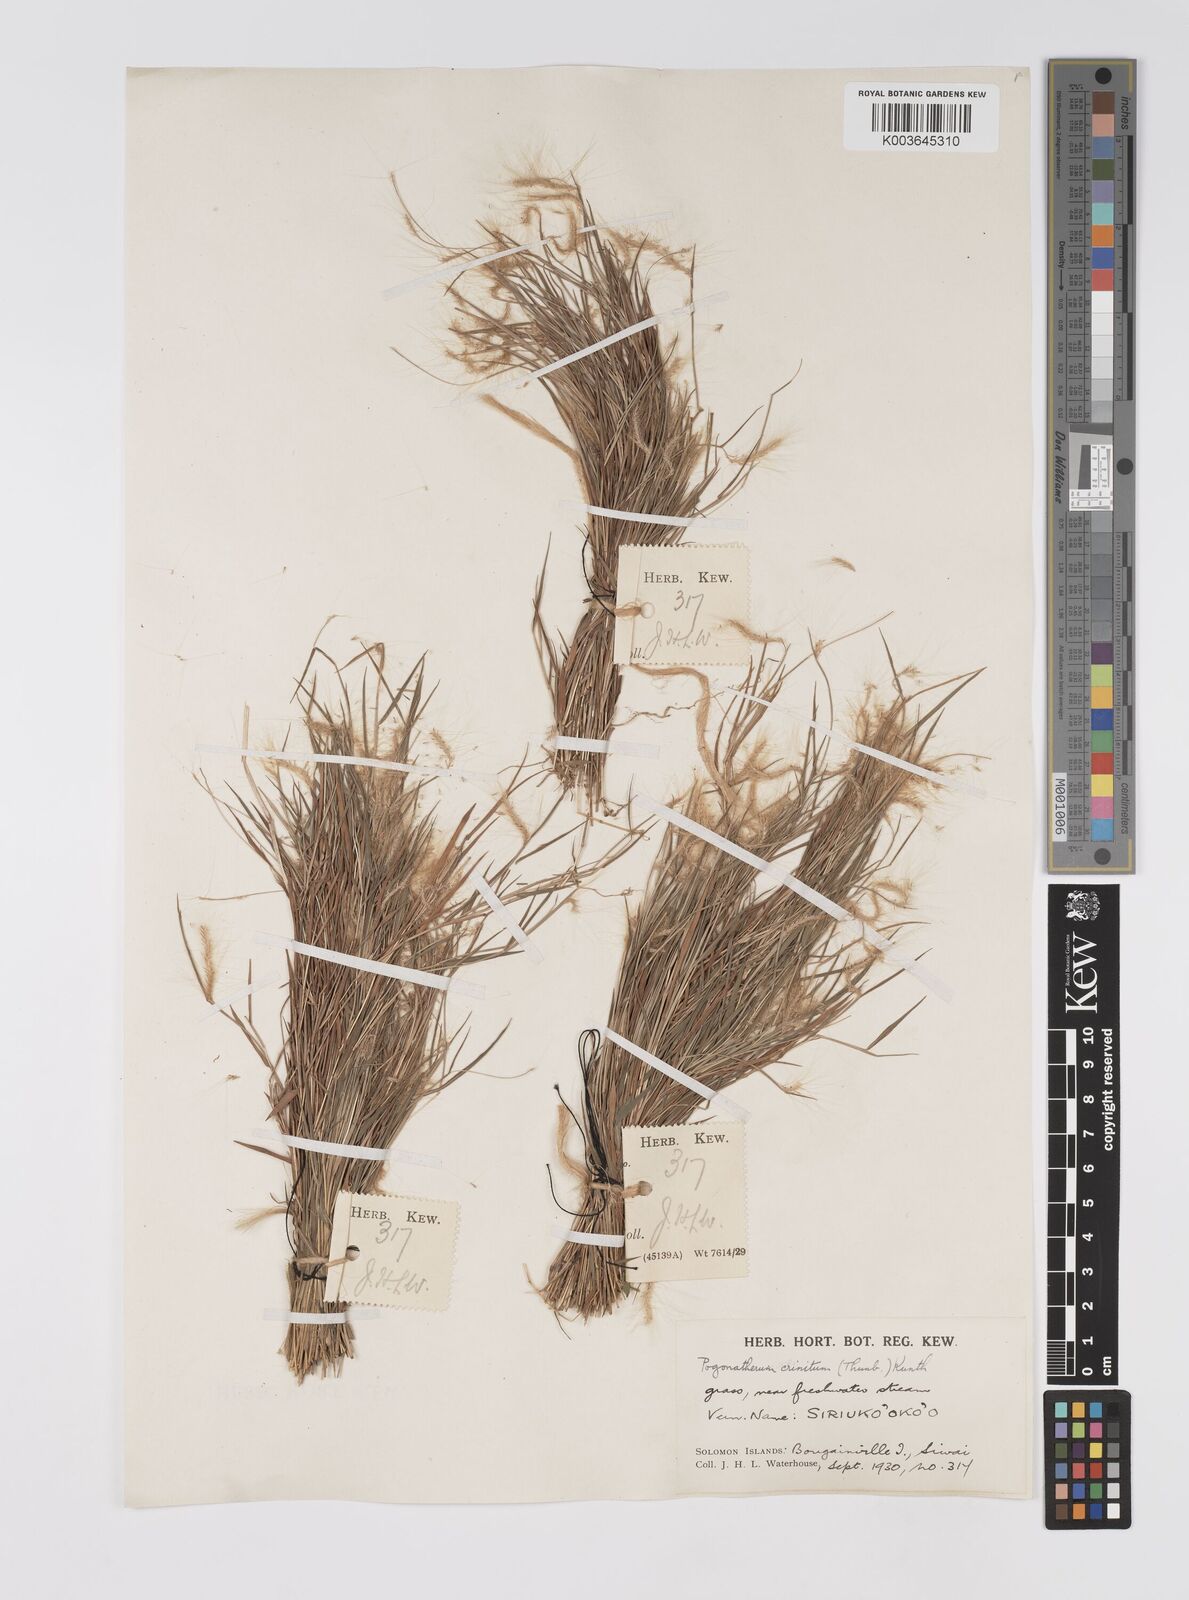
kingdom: Plantae
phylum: Tracheophyta
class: Liliopsida
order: Poales
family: Poaceae
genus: Pogonatherum
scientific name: Pogonatherum crinitum
